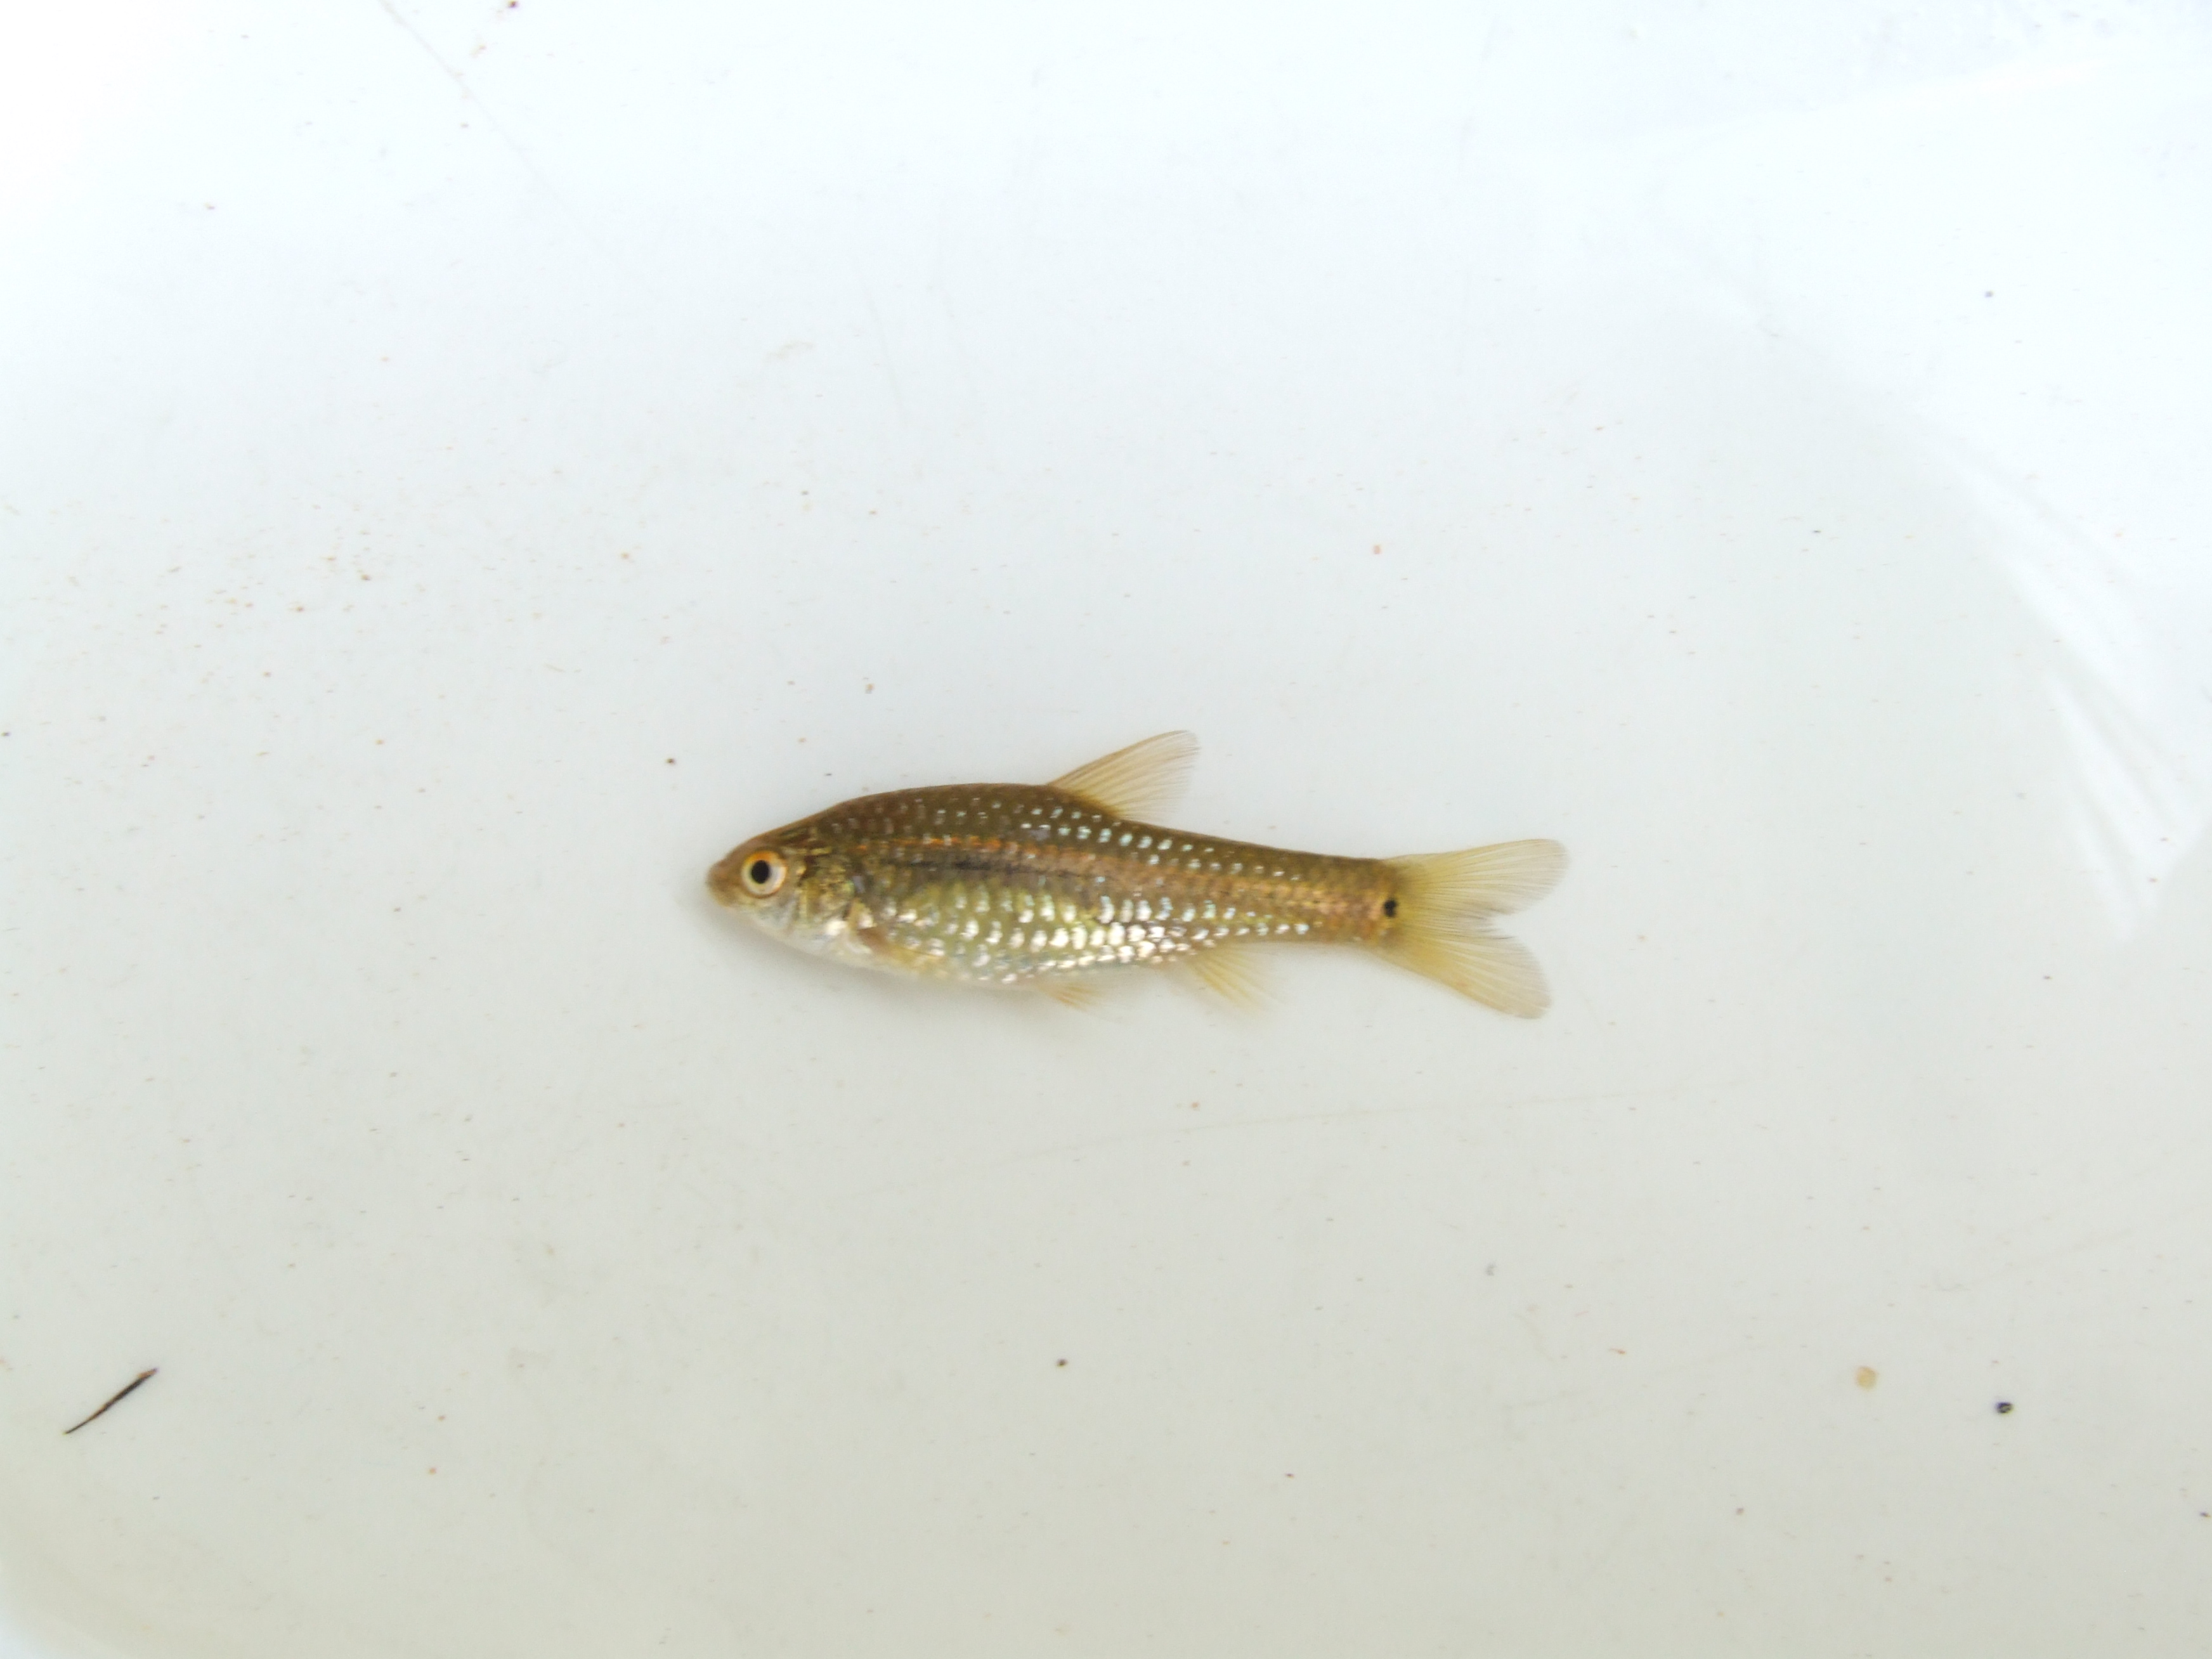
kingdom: Animalia
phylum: Chordata
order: Cypriniformes
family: Cyprinidae
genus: Enteromius
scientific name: Enteromius brevidorsalis
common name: Dwarf barb
